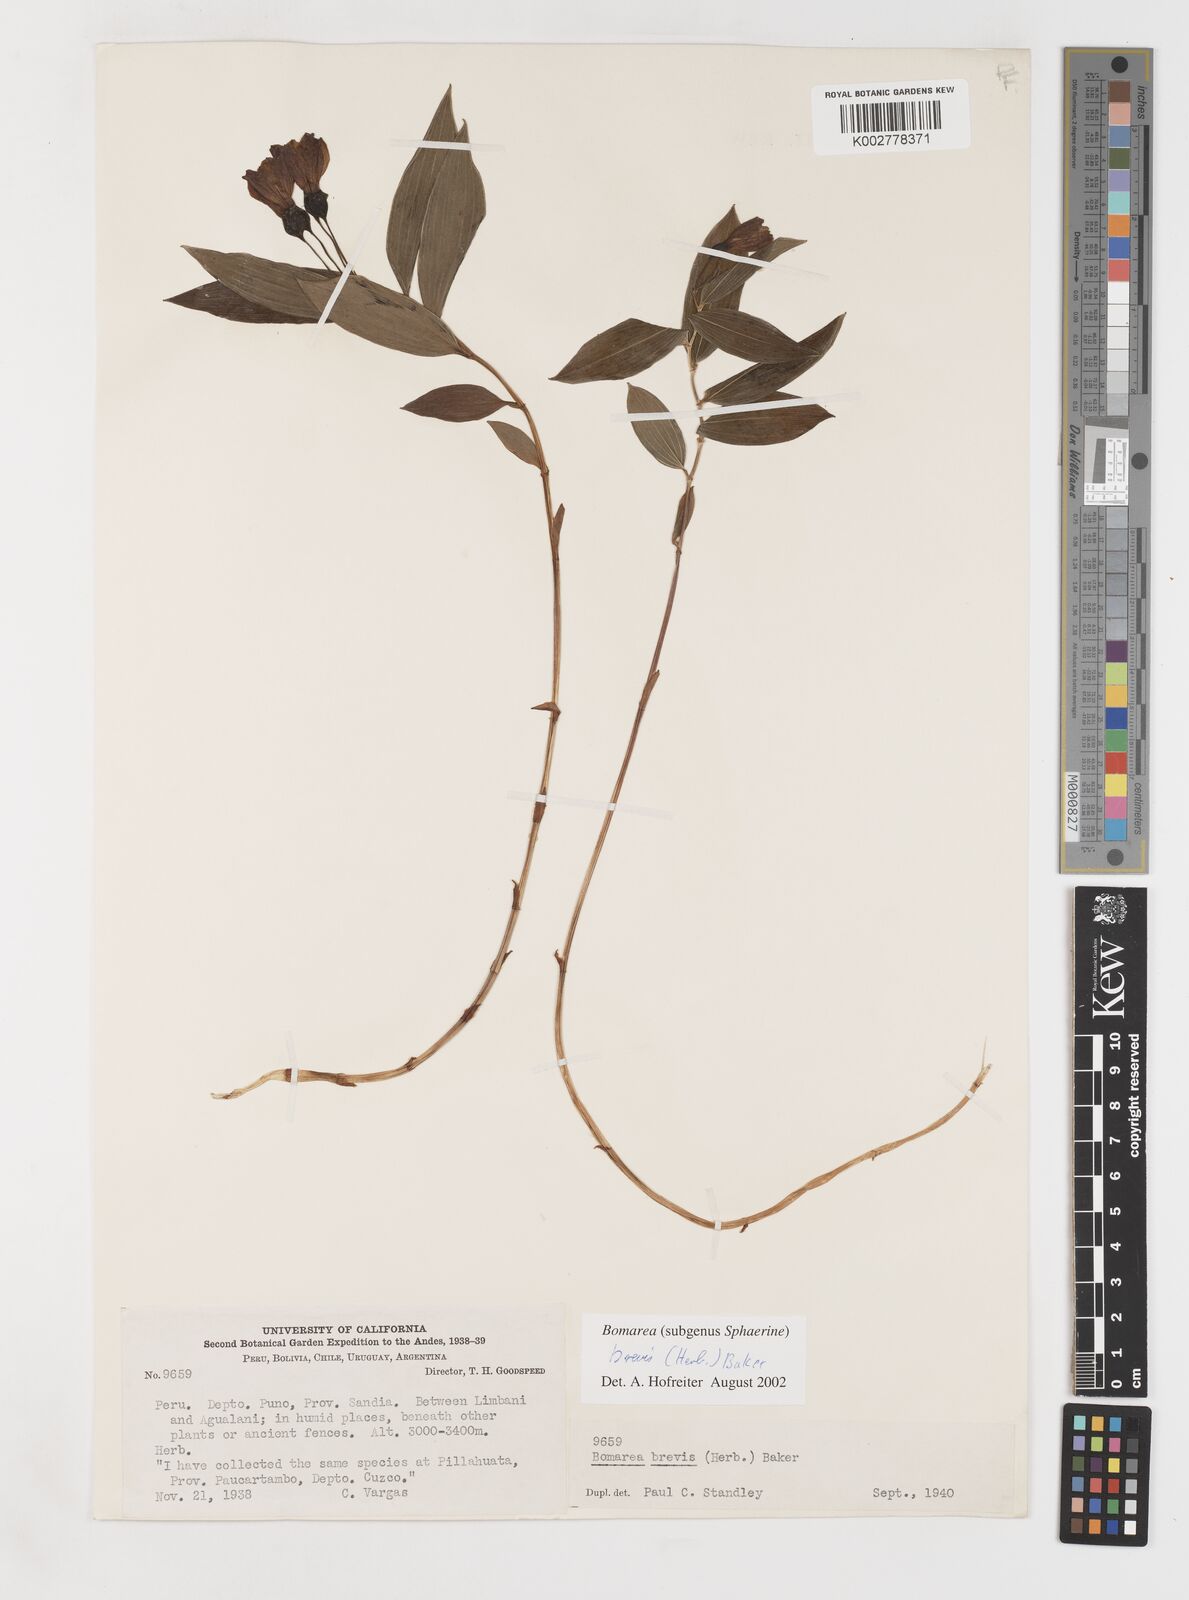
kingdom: Plantae
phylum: Tracheophyta
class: Liliopsida
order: Liliales
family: Alstroemeriaceae
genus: Bomarea
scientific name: Bomarea brevis
